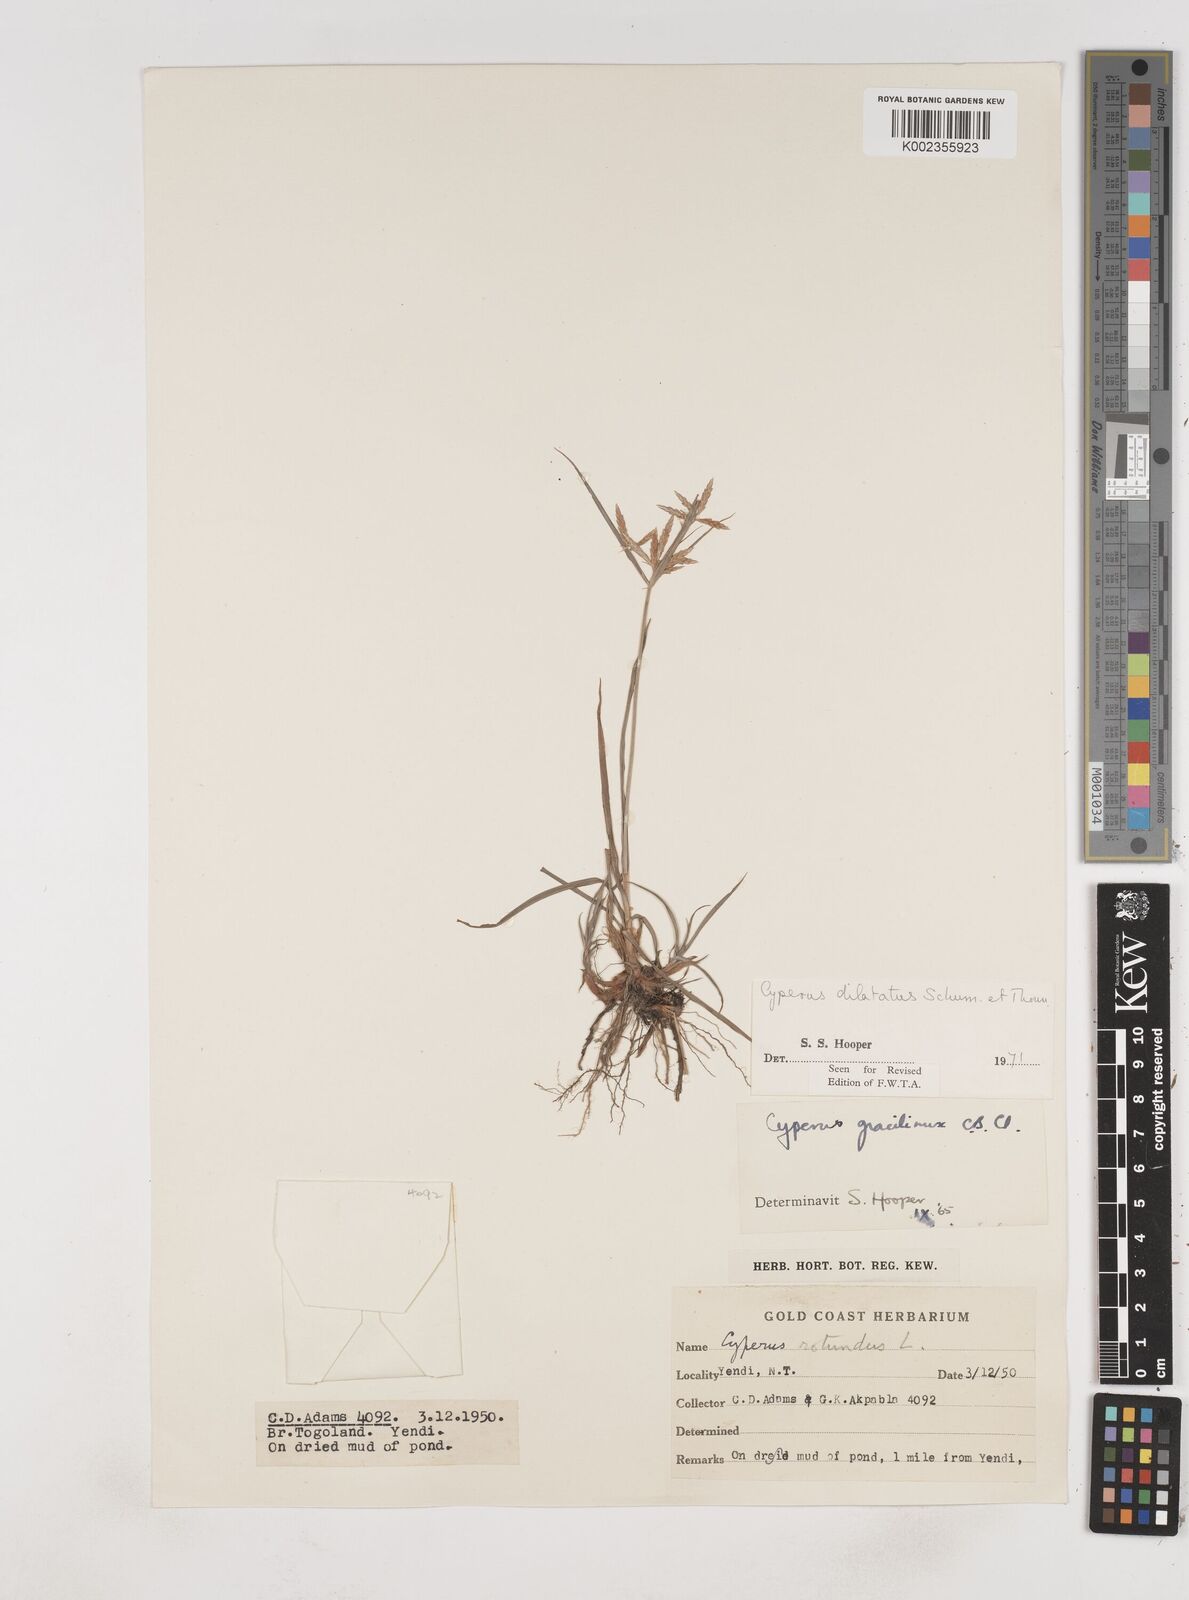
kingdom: Plantae
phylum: Tracheophyta
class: Liliopsida
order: Poales
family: Cyperaceae
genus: Cyperus
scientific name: Cyperus dilatatus
